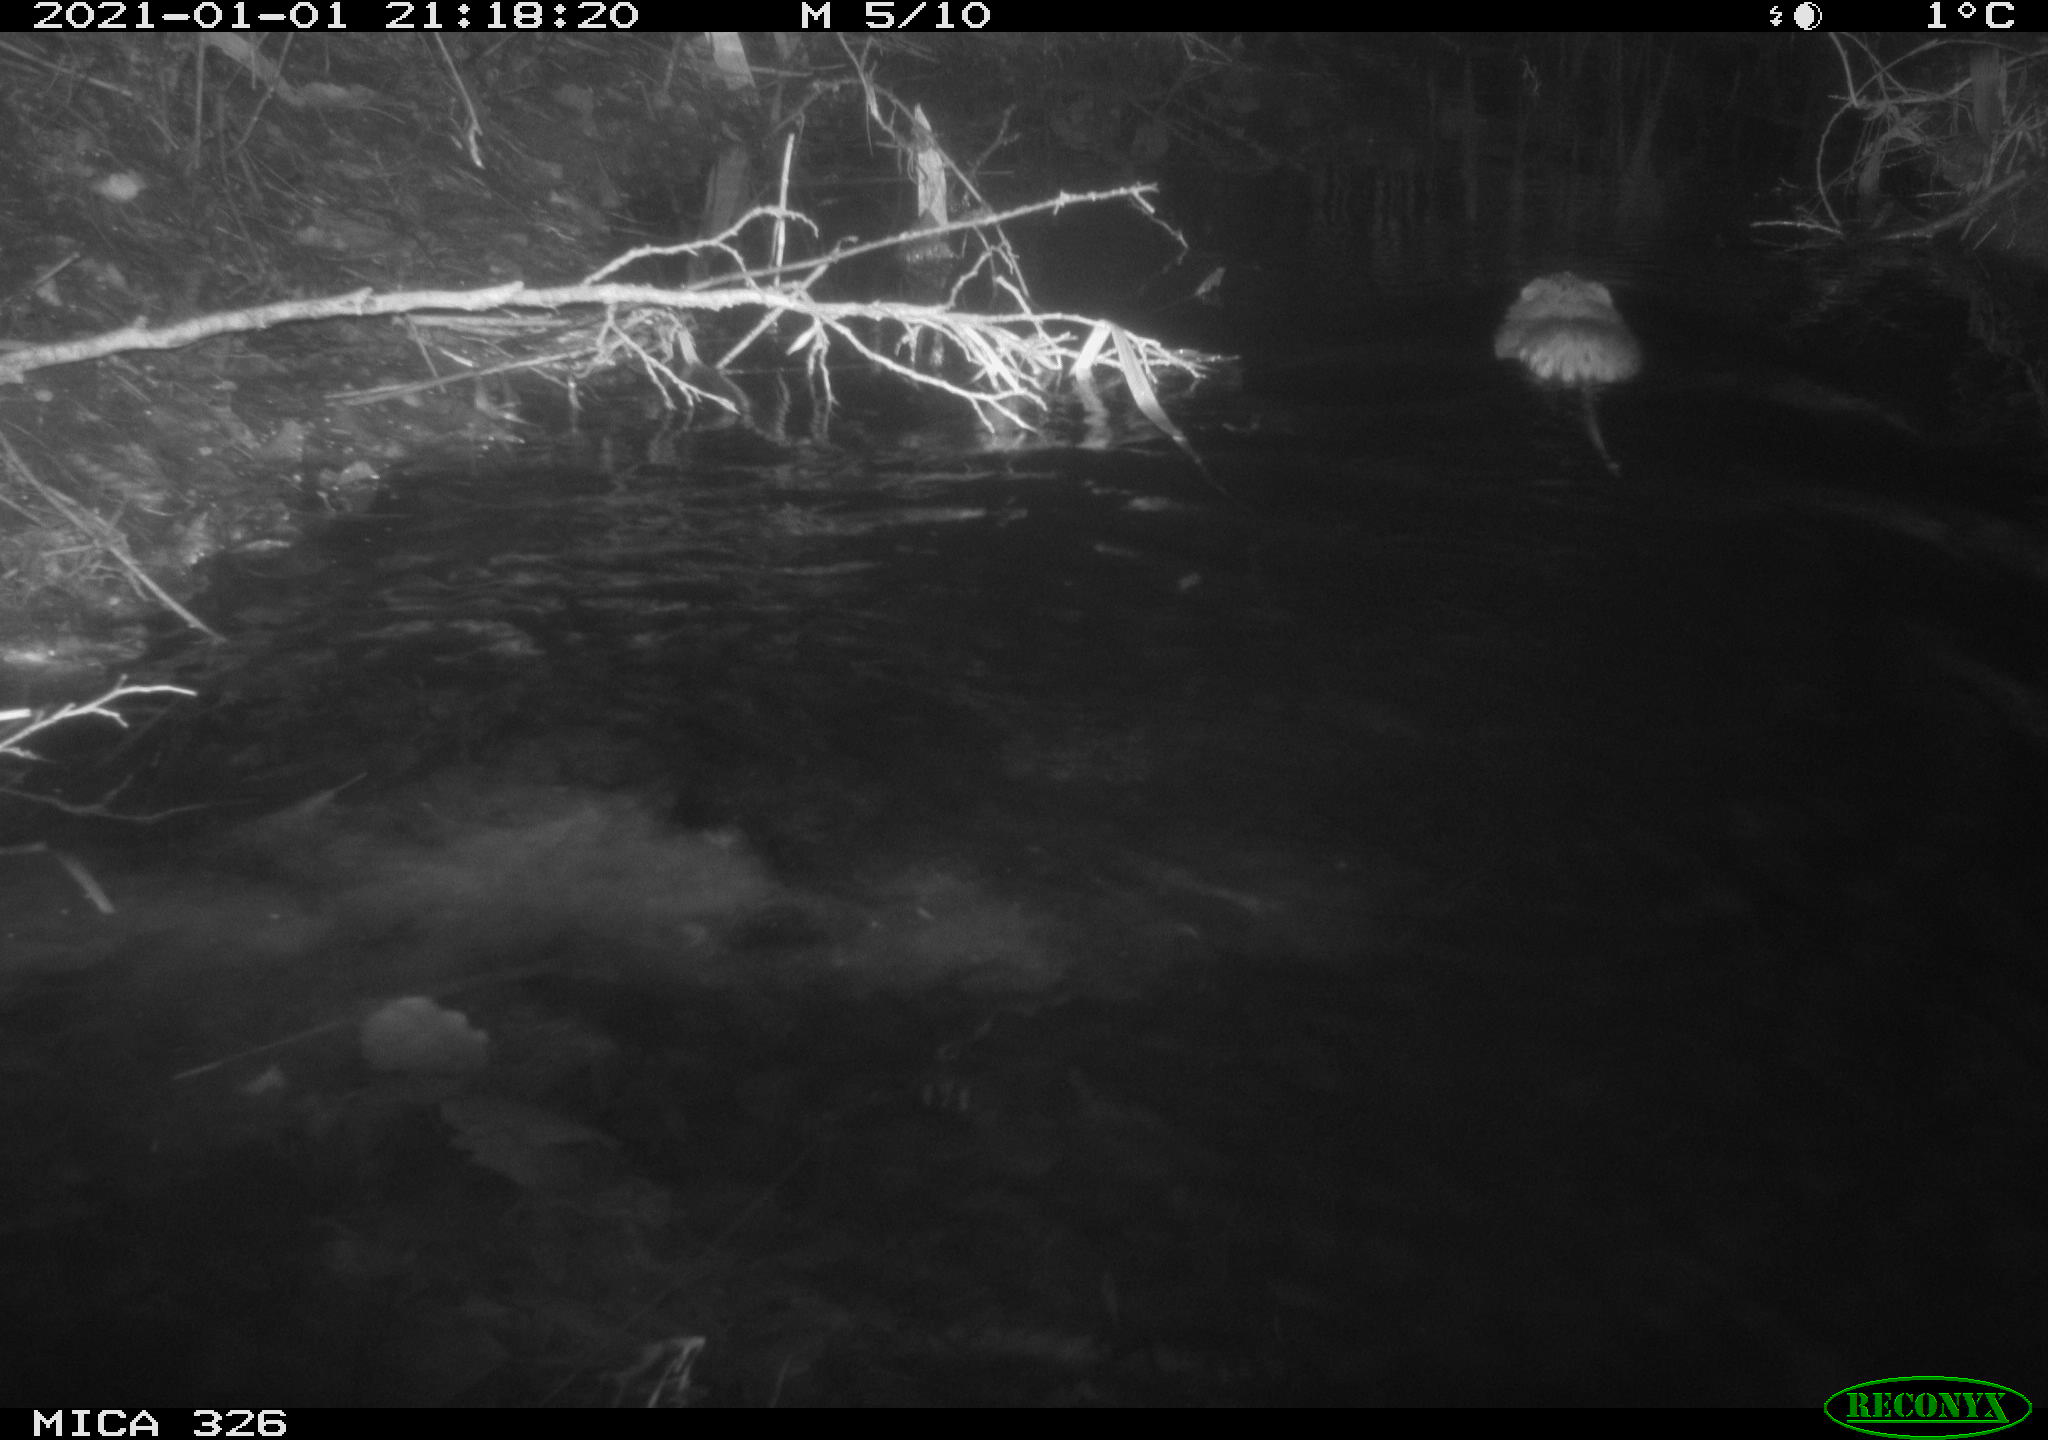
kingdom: Animalia
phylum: Chordata
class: Mammalia
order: Rodentia
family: Cricetidae
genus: Ondatra
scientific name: Ondatra zibethicus
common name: Muskrat
